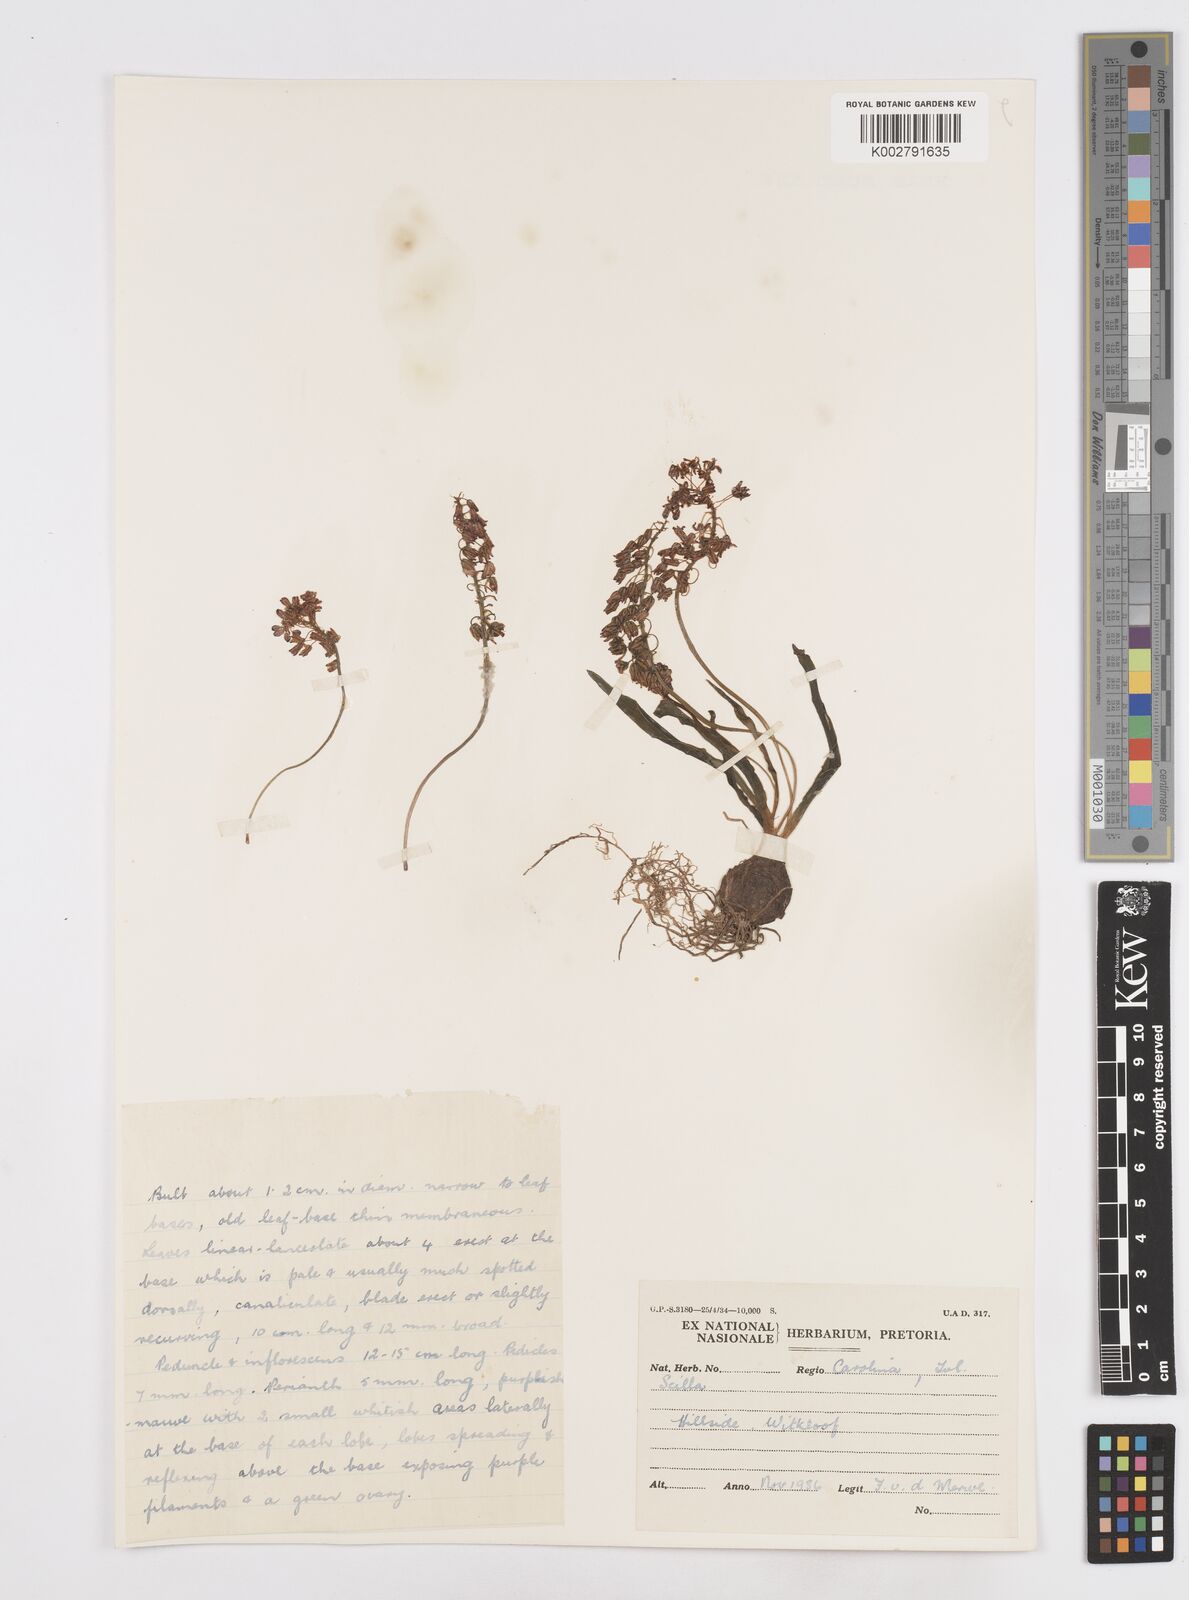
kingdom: Plantae
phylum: Tracheophyta
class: Liliopsida
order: Asparagales
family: Asparagaceae
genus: Scilla
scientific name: Scilla
